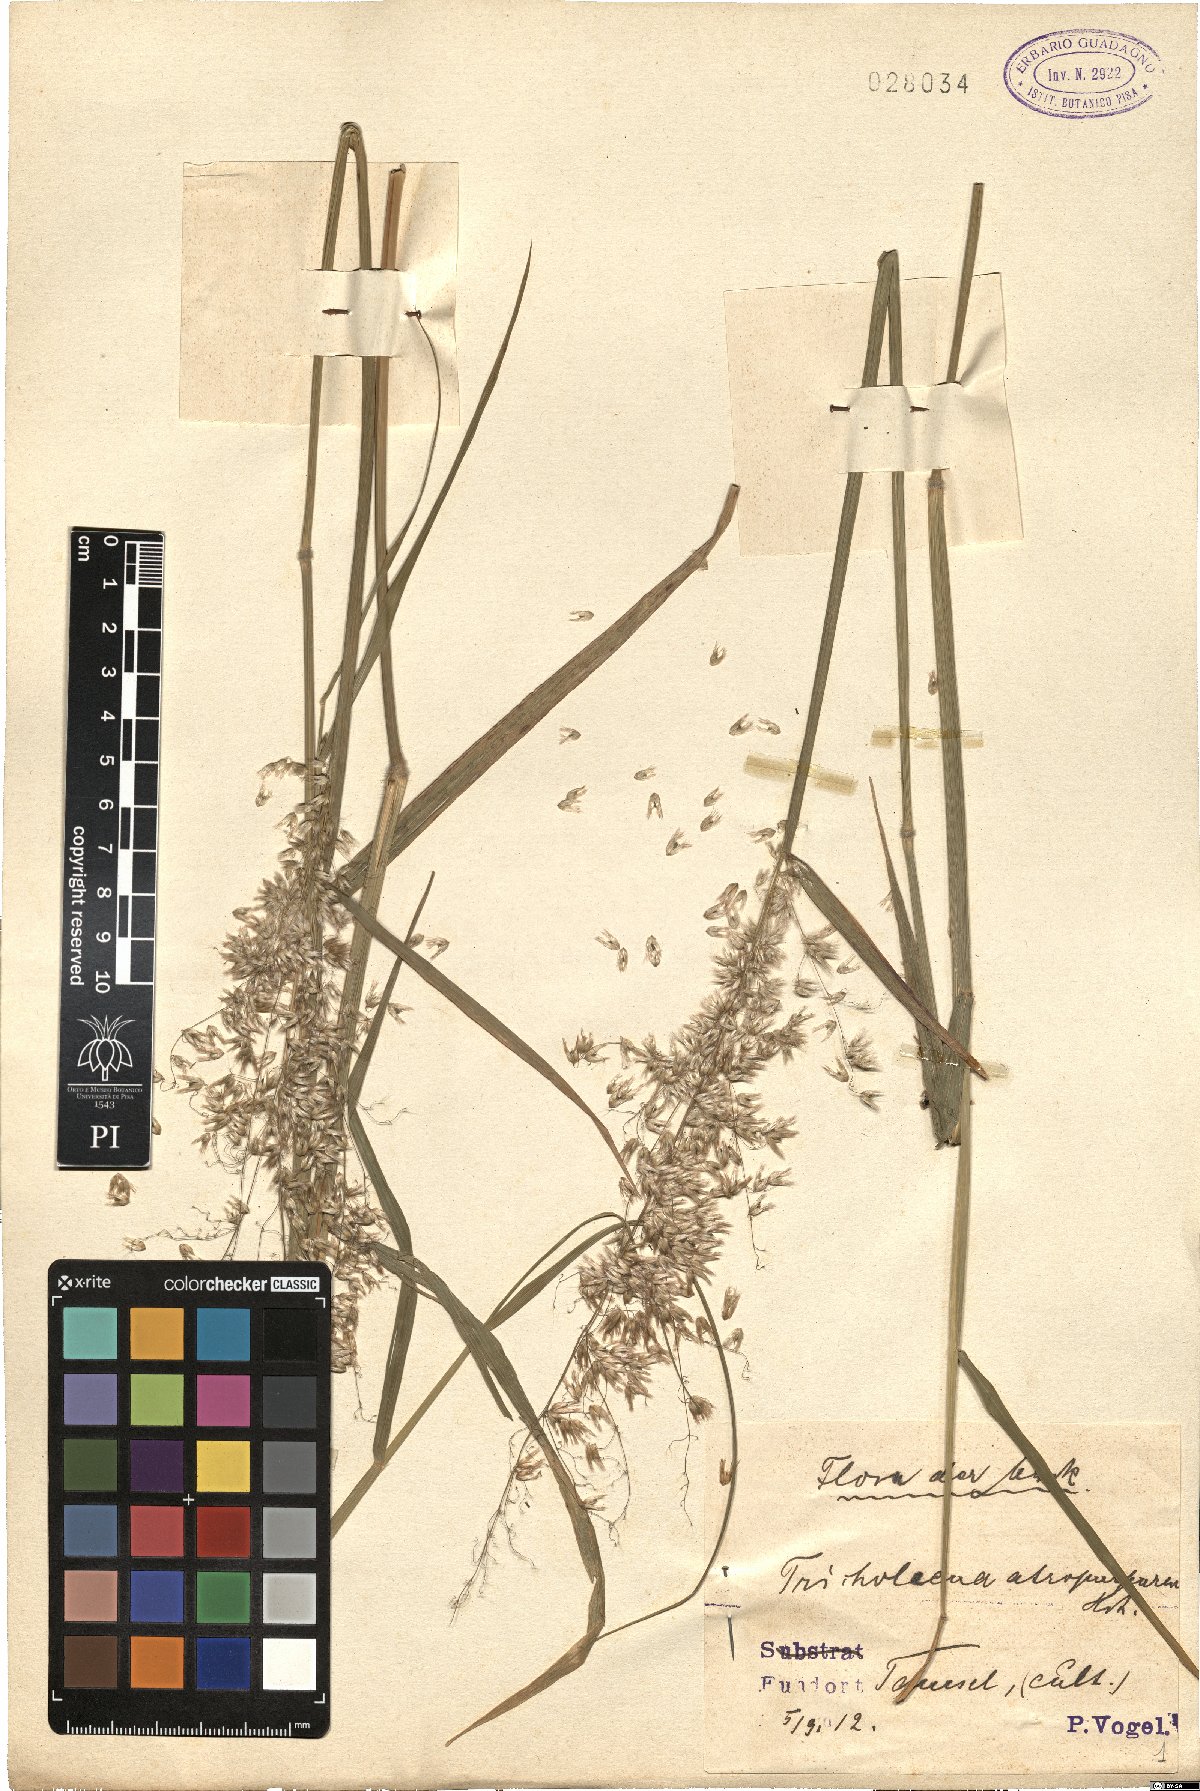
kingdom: Plantae
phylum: Tracheophyta
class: Liliopsida
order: Poales
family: Poaceae
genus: Melinis
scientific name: Melinis repens
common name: Rose natal grass
